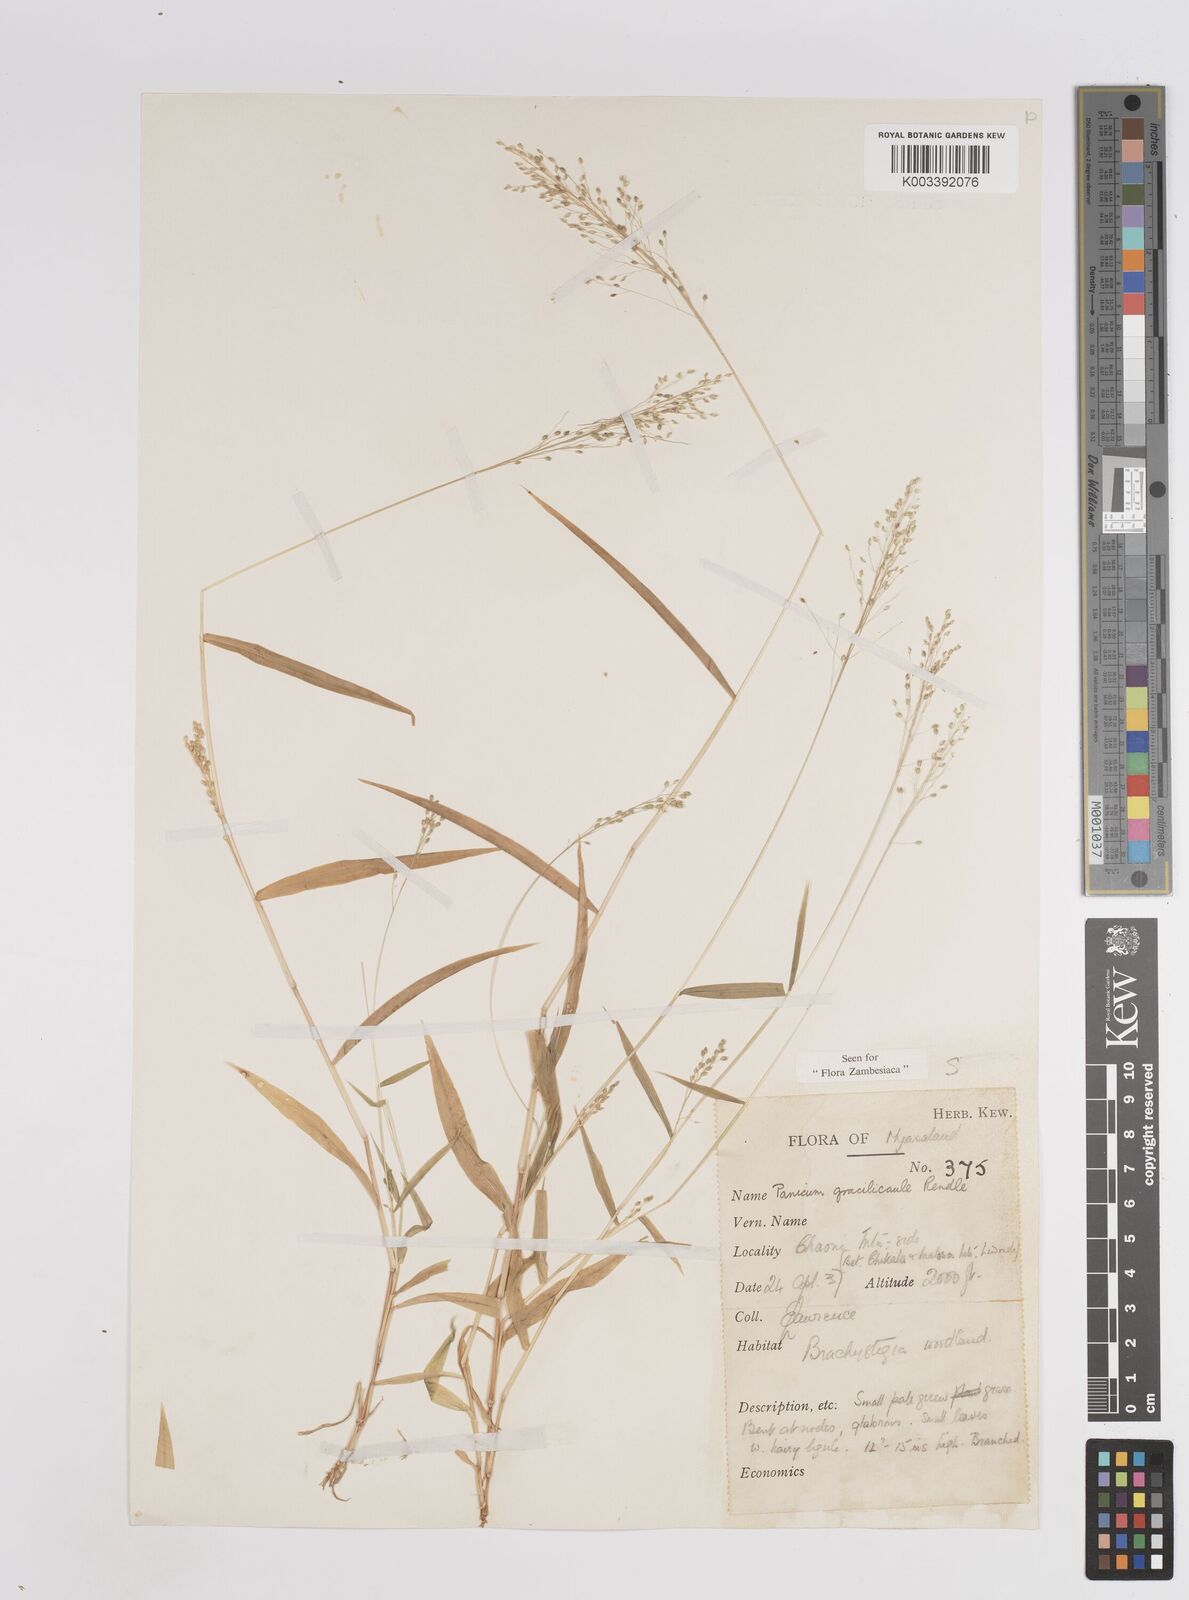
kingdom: Plantae
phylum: Tracheophyta
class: Liliopsida
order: Poales
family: Poaceae
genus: Trichanthecium
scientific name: Trichanthecium gracilicaule
